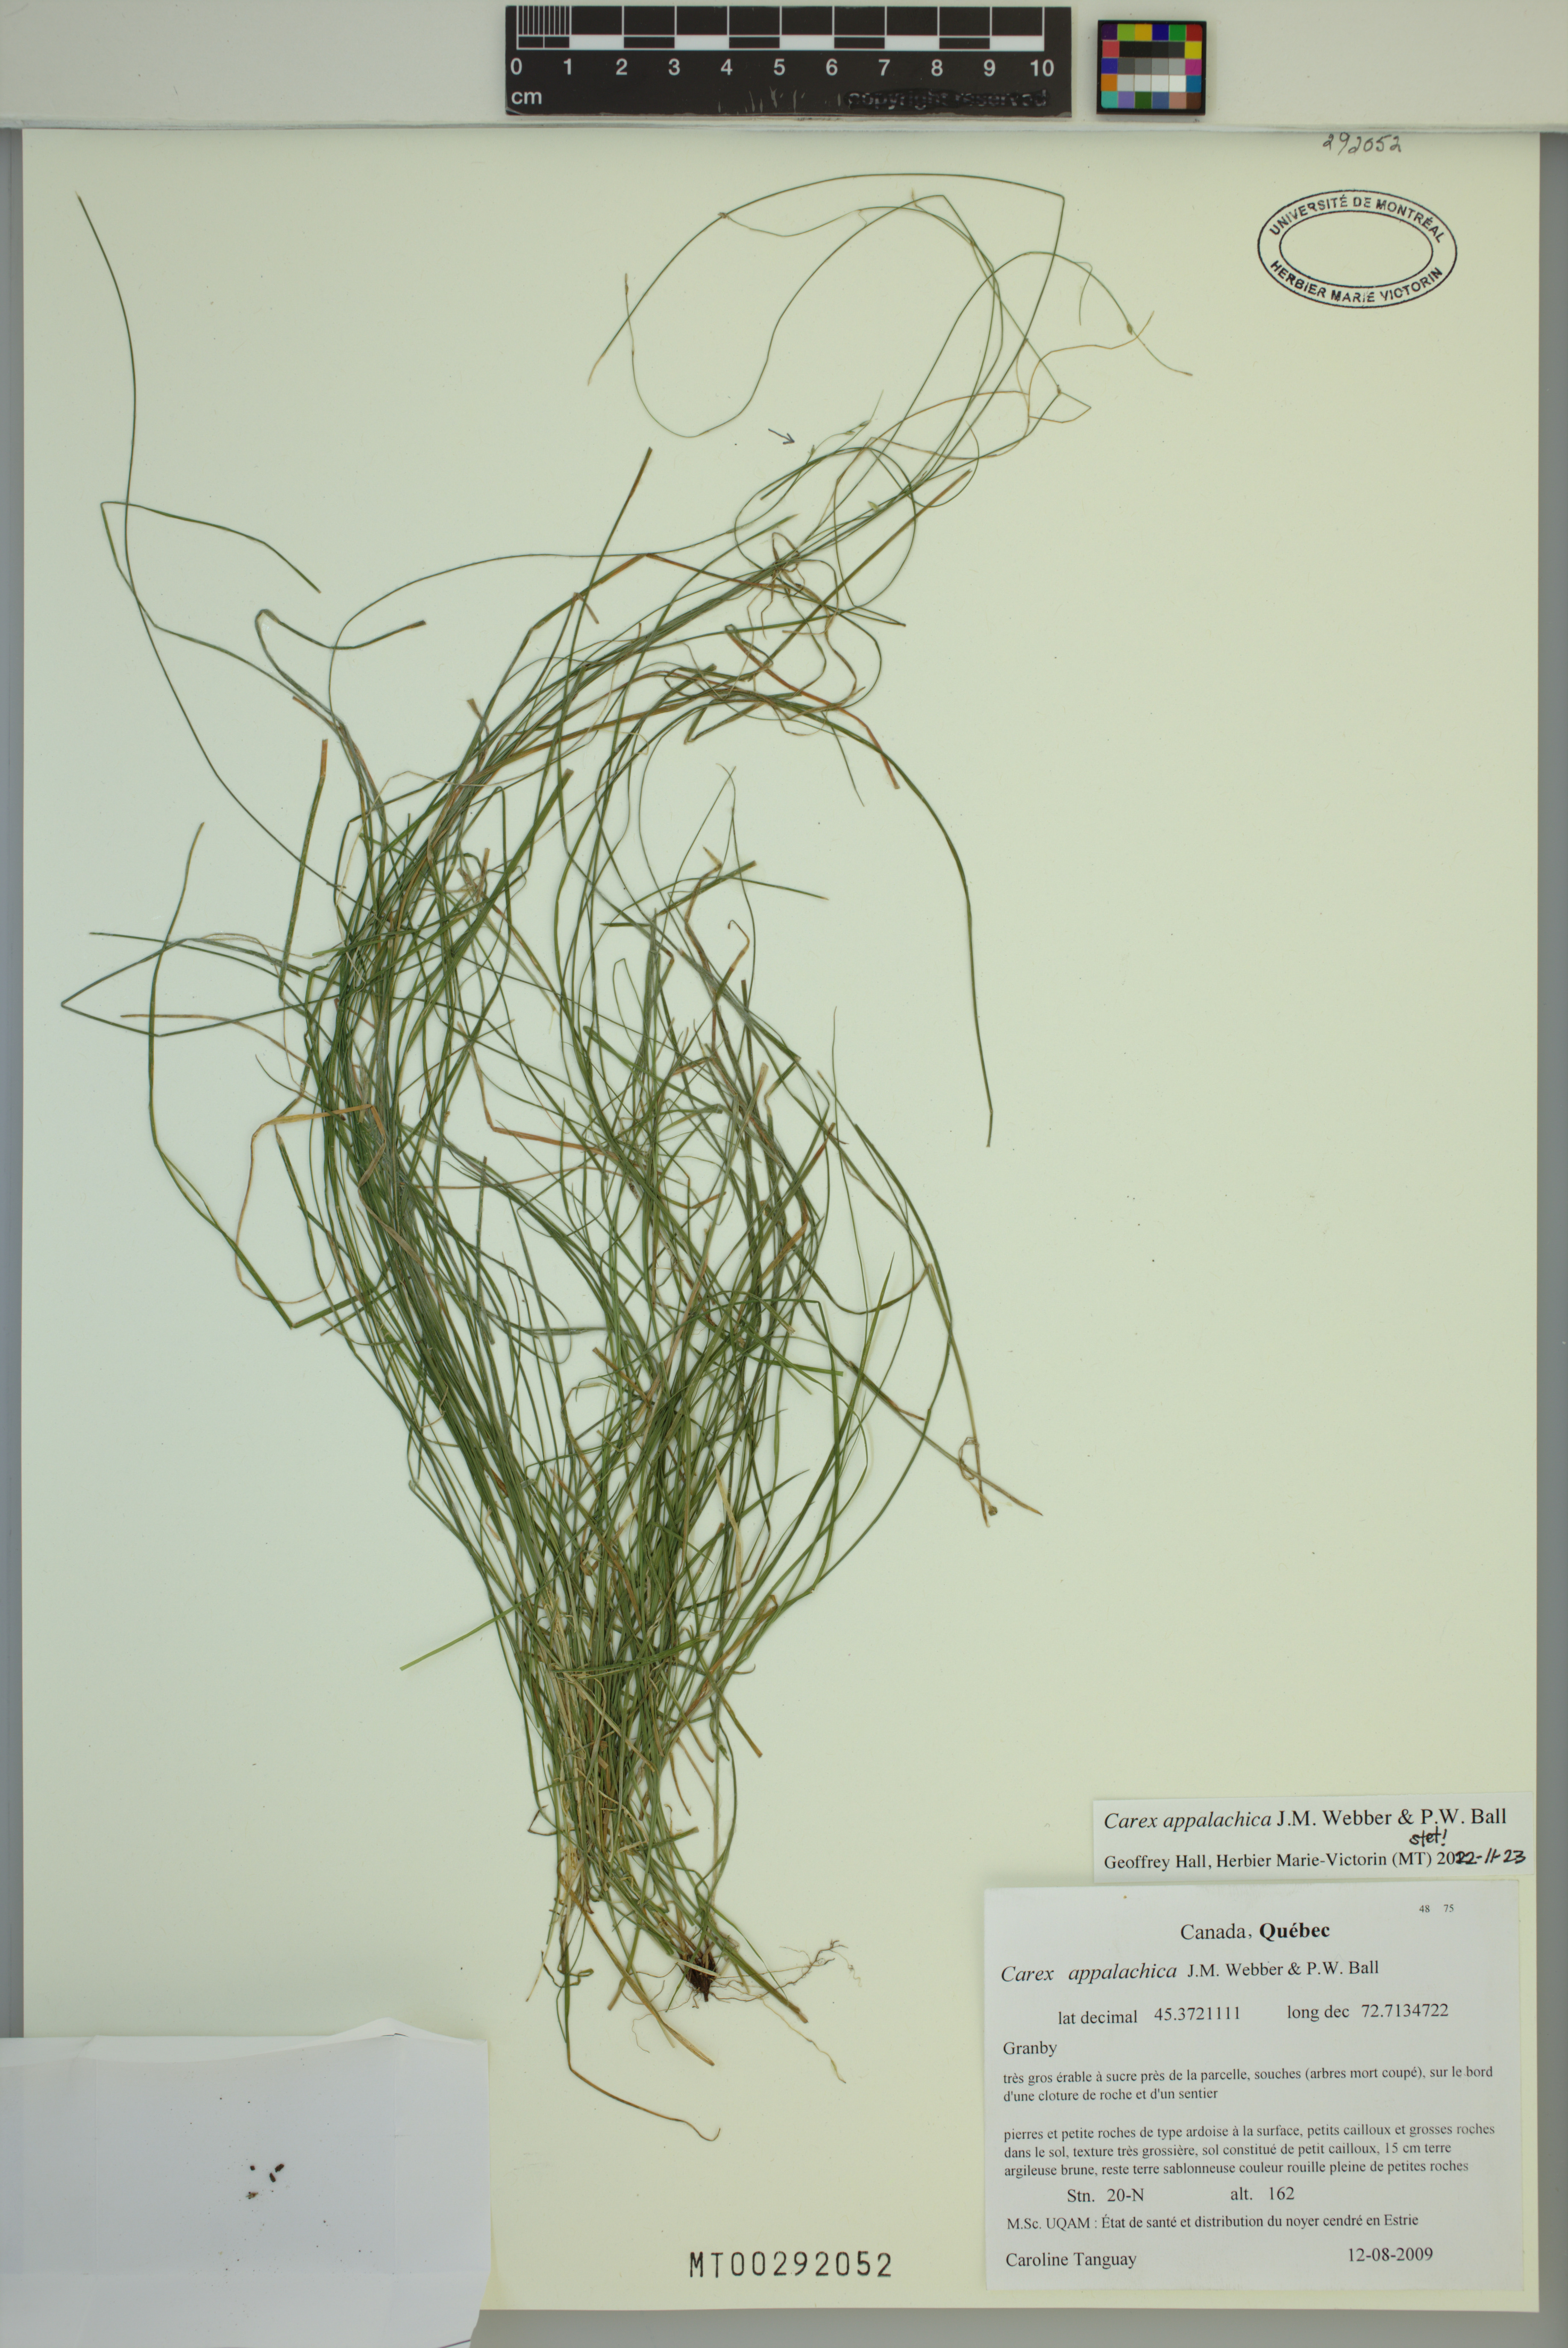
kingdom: Plantae
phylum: Tracheophyta
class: Liliopsida
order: Poales
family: Cyperaceae
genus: Carex
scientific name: Carex appalachica
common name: Appalachian sedge
